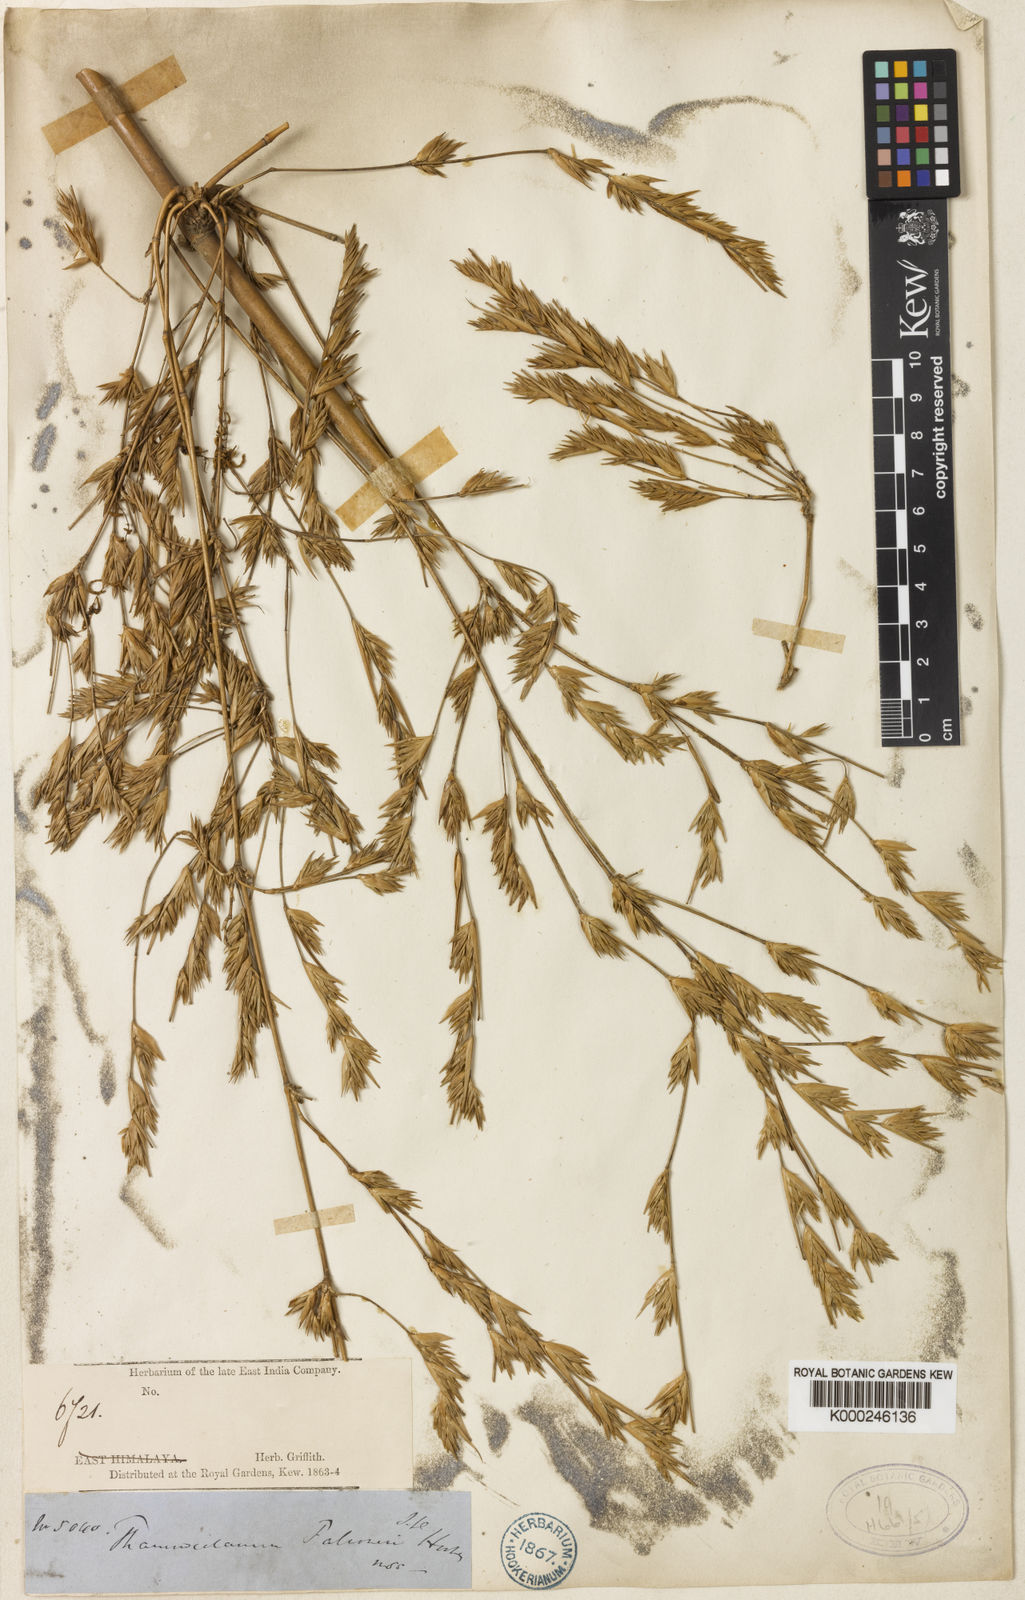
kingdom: Plantae
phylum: Tracheophyta
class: Liliopsida
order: Poales
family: Poaceae
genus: Himalayacalamus
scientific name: Himalayacalamus falconeri
